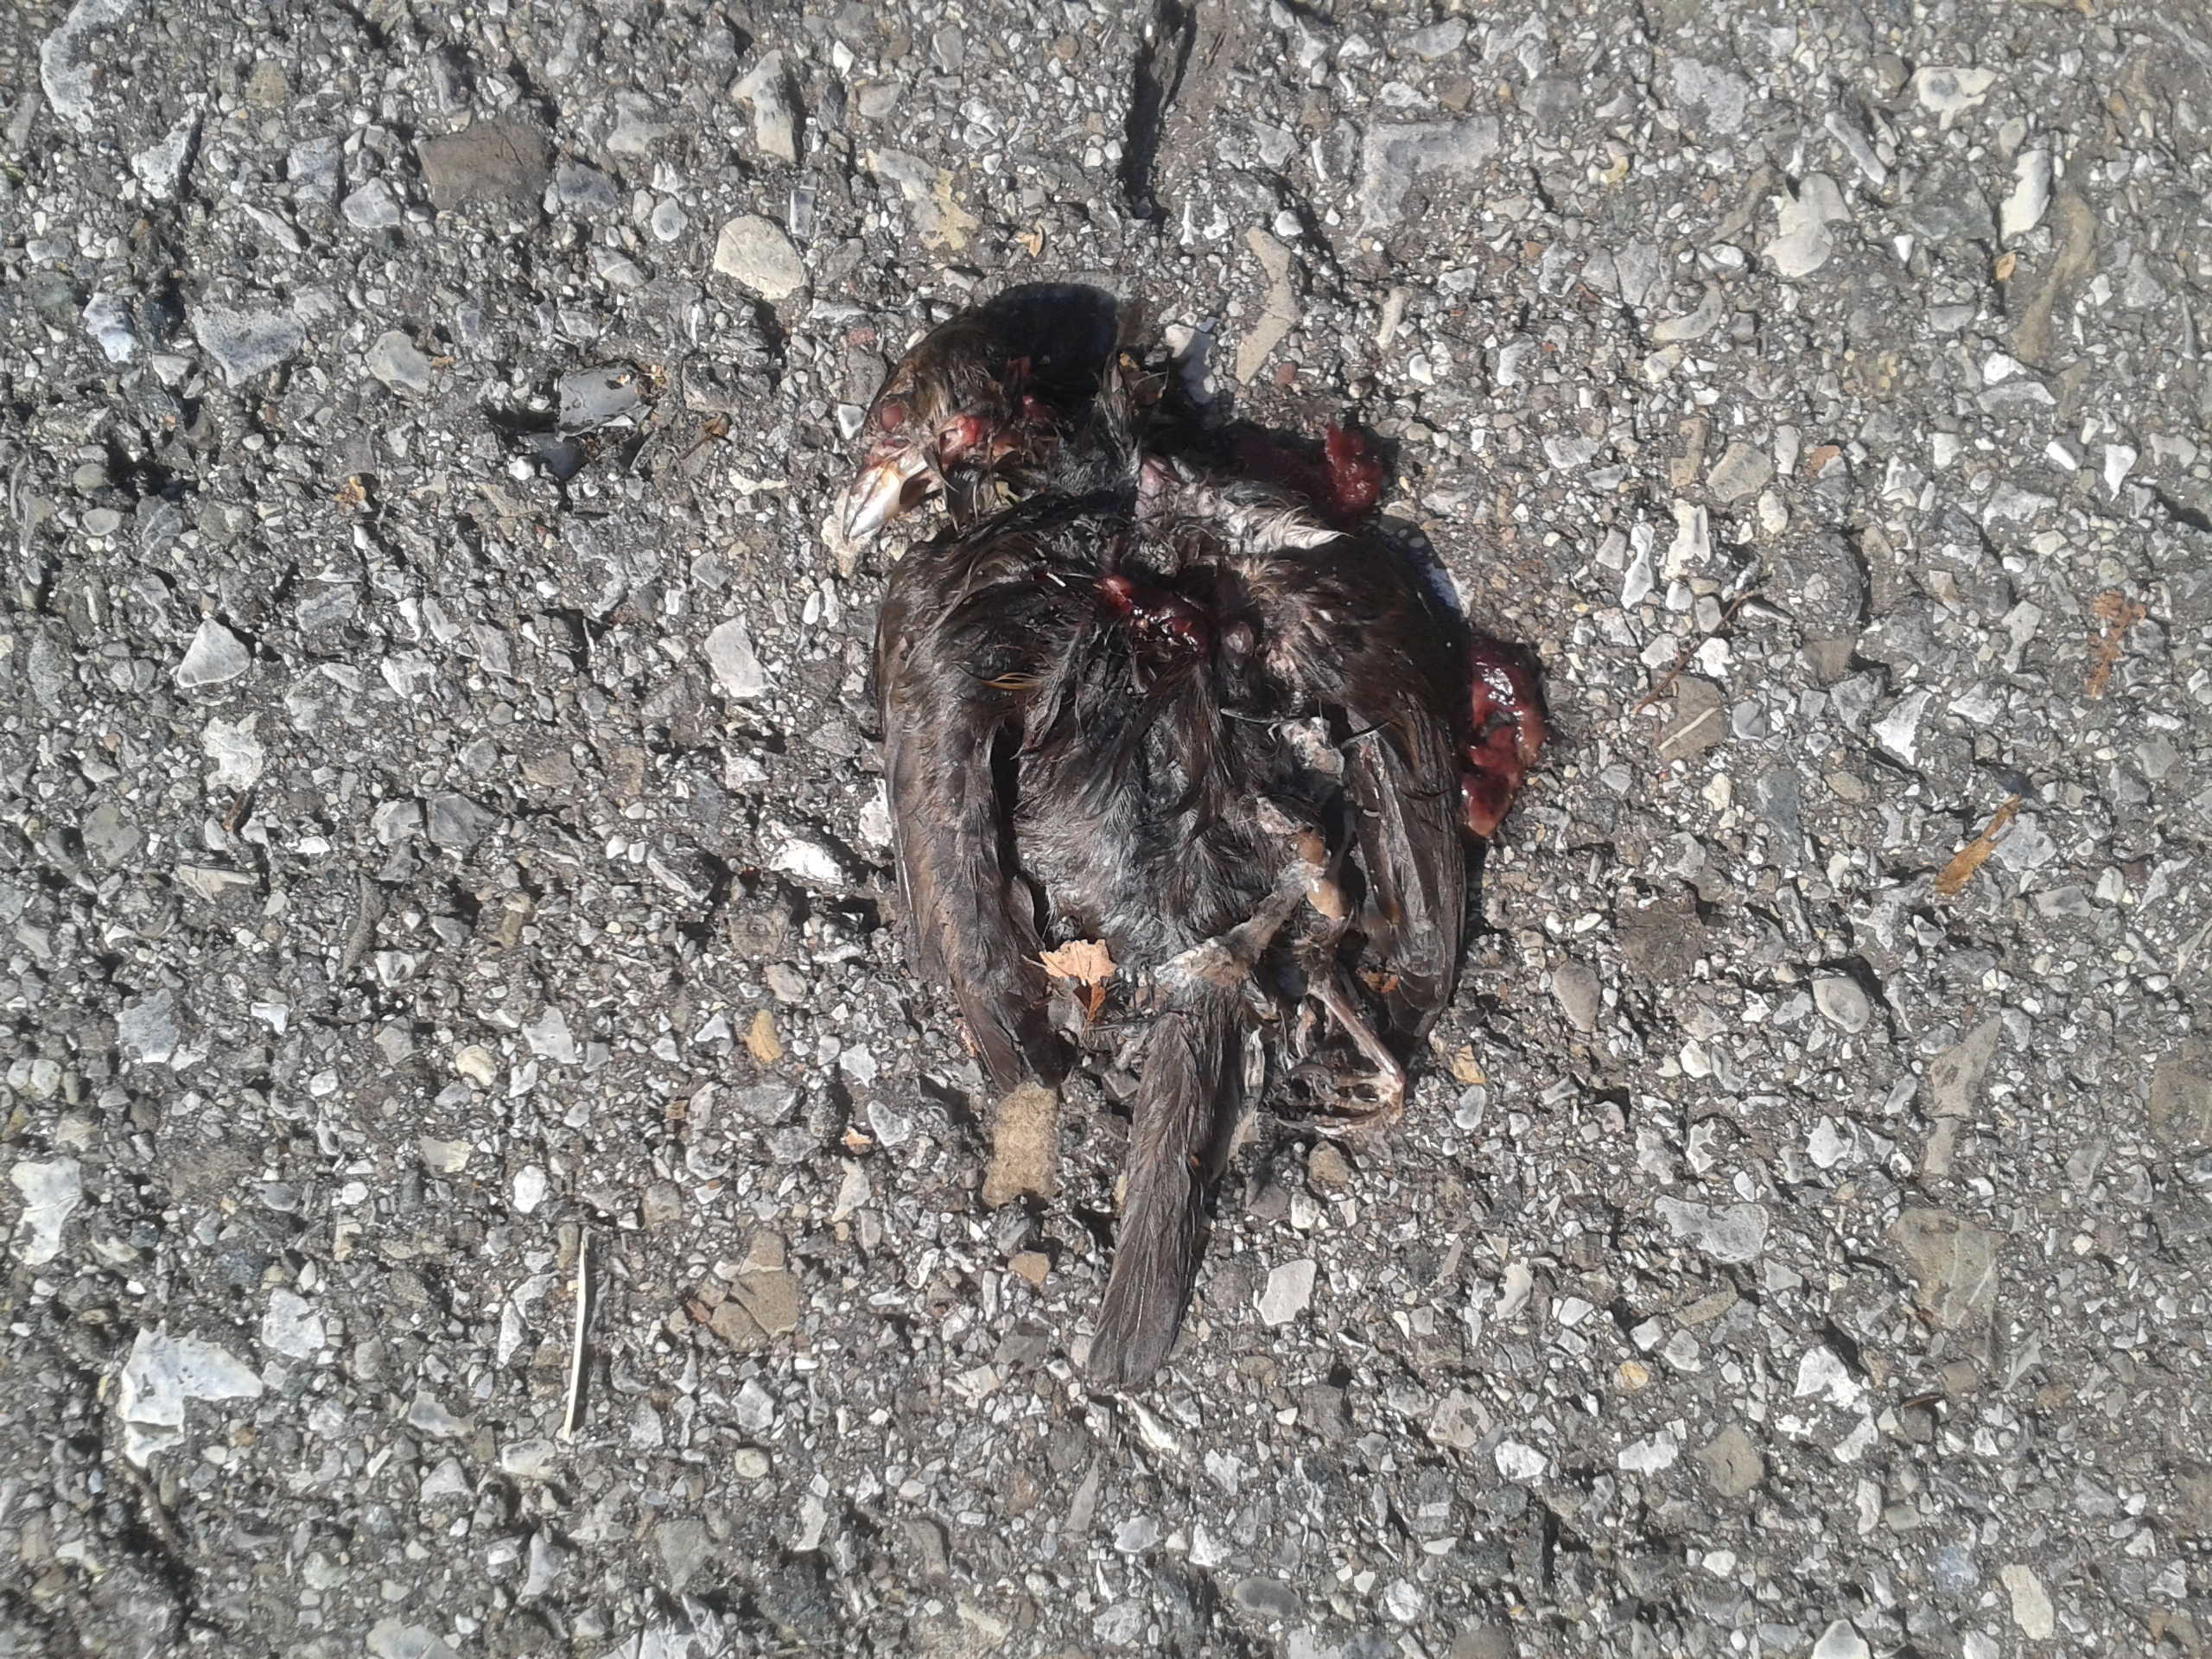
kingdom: Animalia
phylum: Chordata
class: Aves
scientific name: Aves
